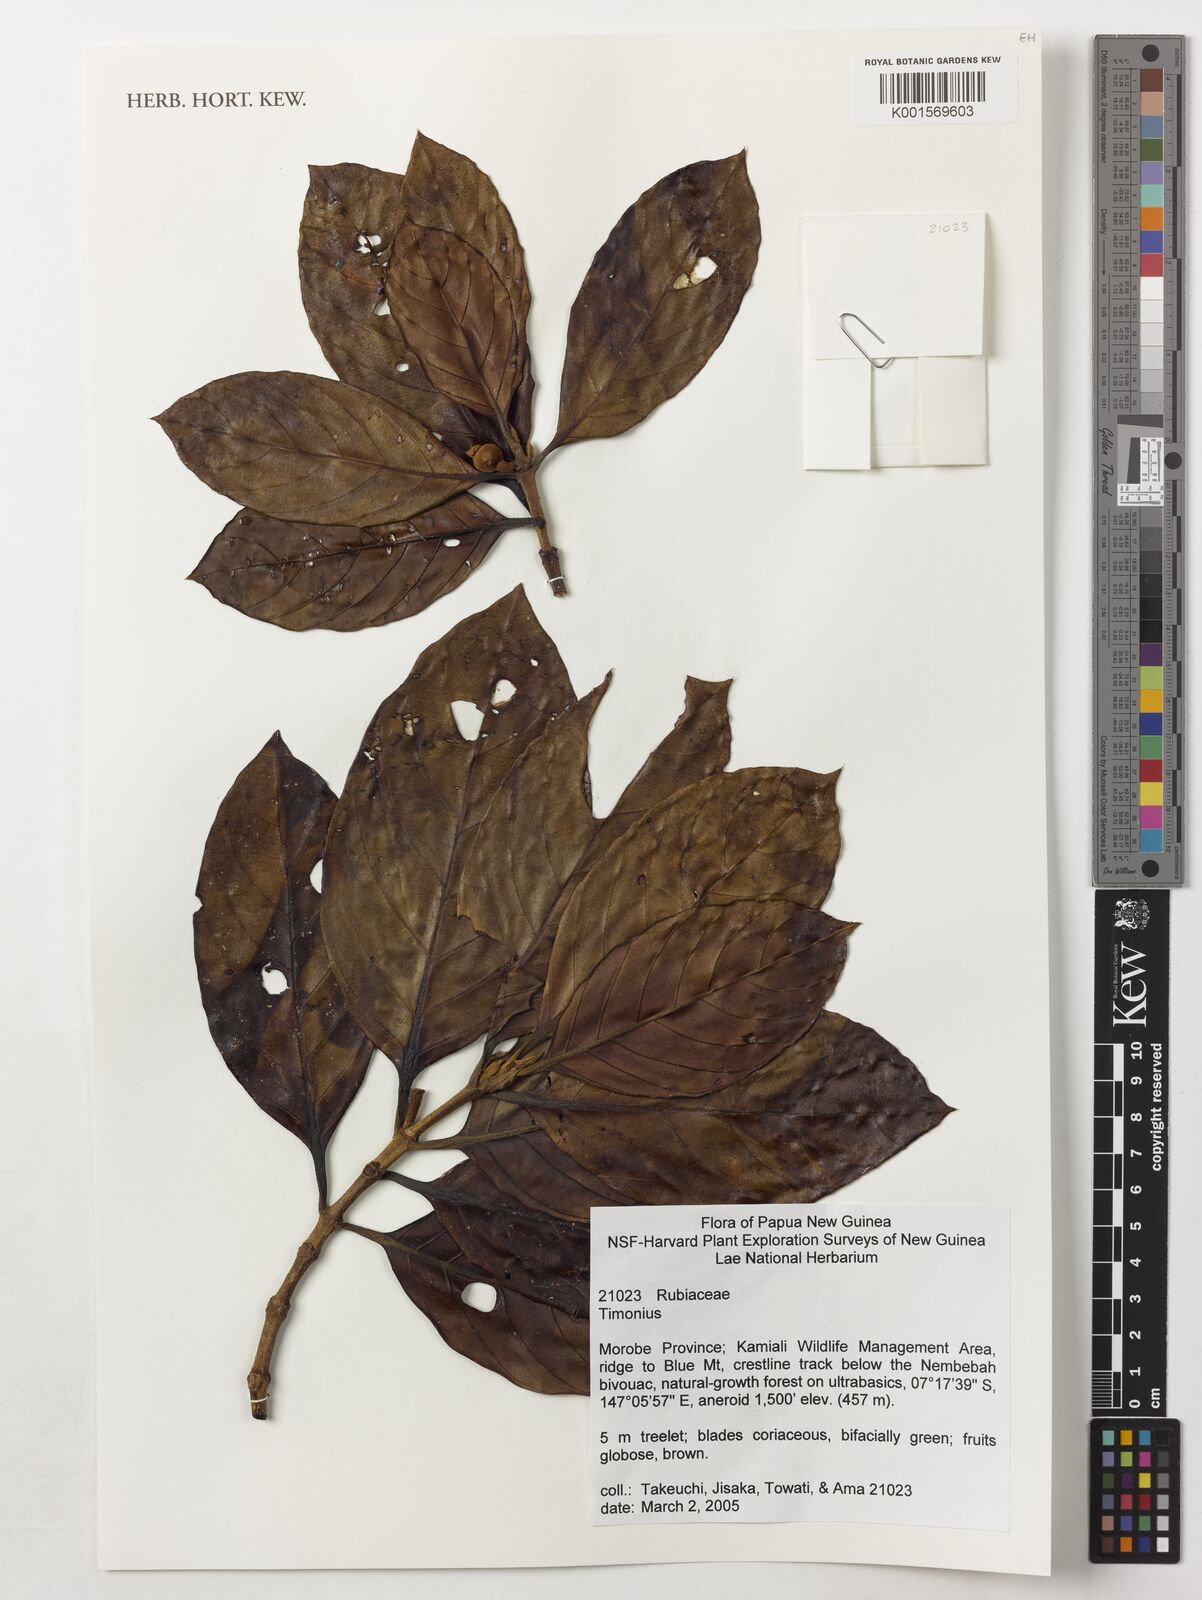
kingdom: Plantae
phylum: Tracheophyta
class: Magnoliopsida
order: Gentianales
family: Rubiaceae
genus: Timonius
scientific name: Timonius
